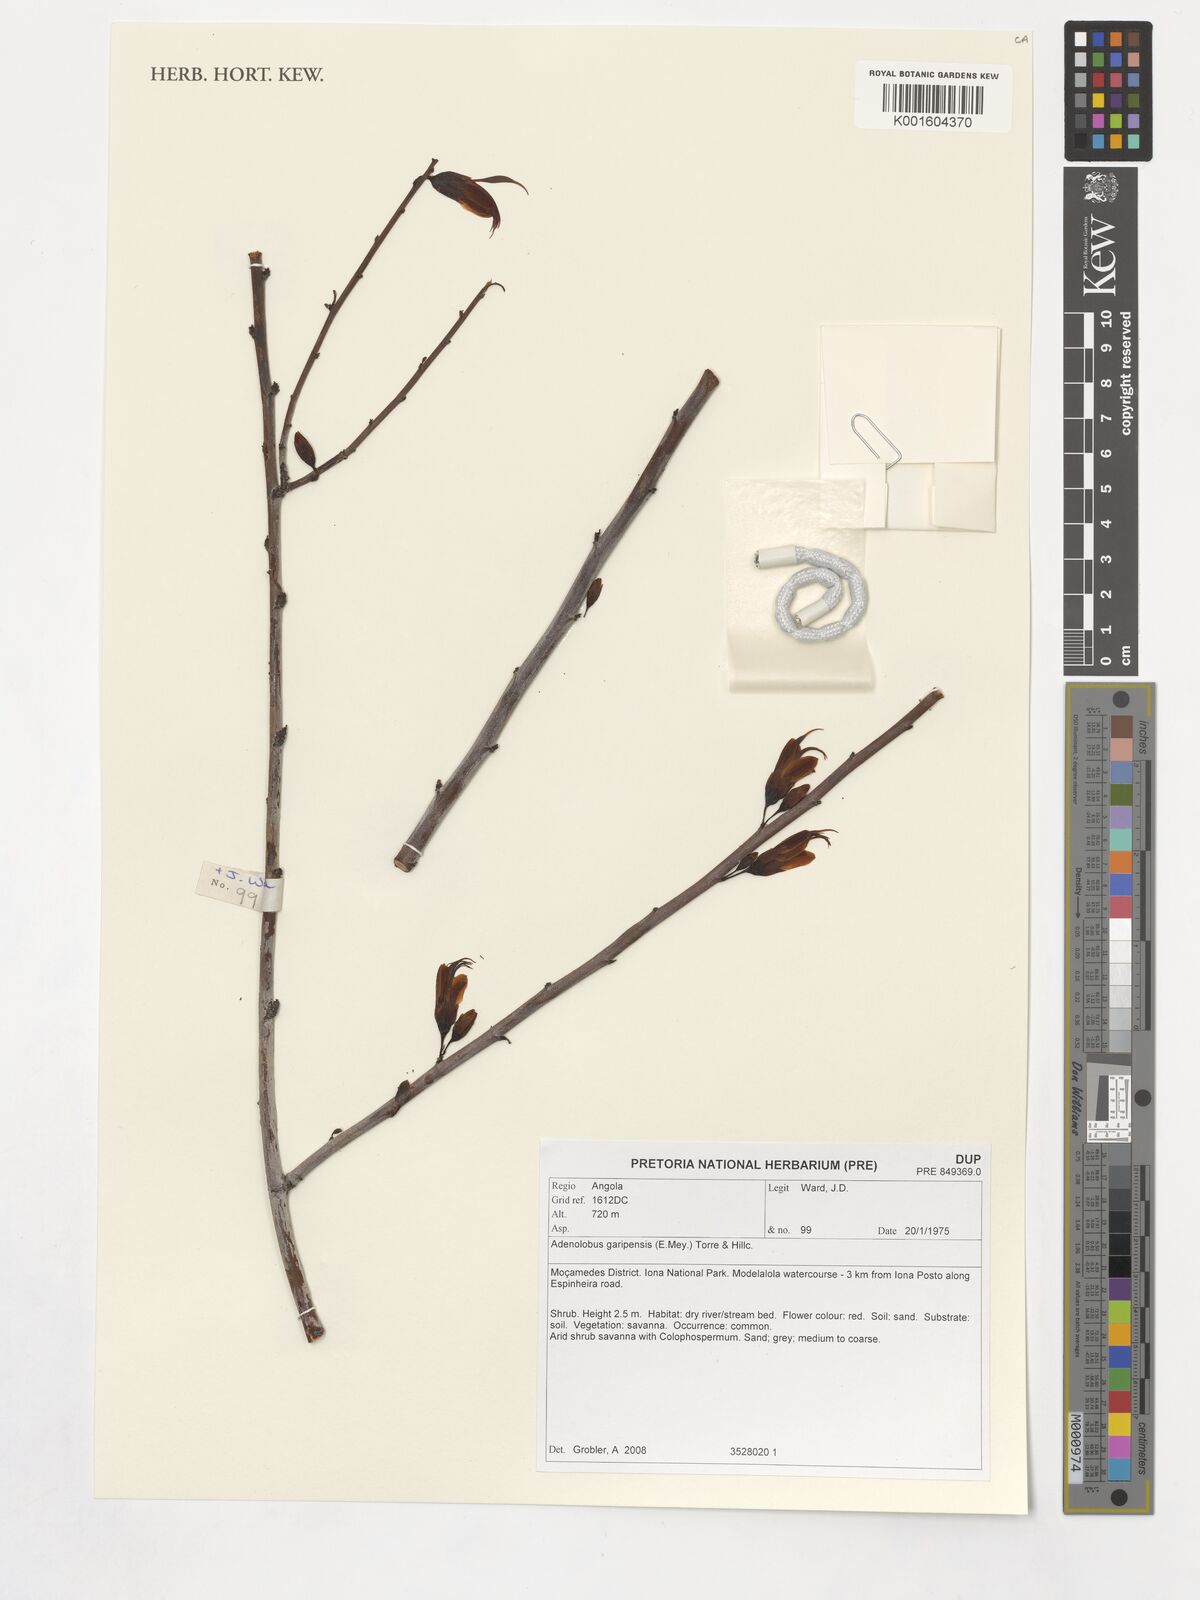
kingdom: Plantae
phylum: Tracheophyta
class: Magnoliopsida
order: Fabales
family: Fabaceae
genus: Adenolobus
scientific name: Adenolobus garipensis
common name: Butterfly-leaf
